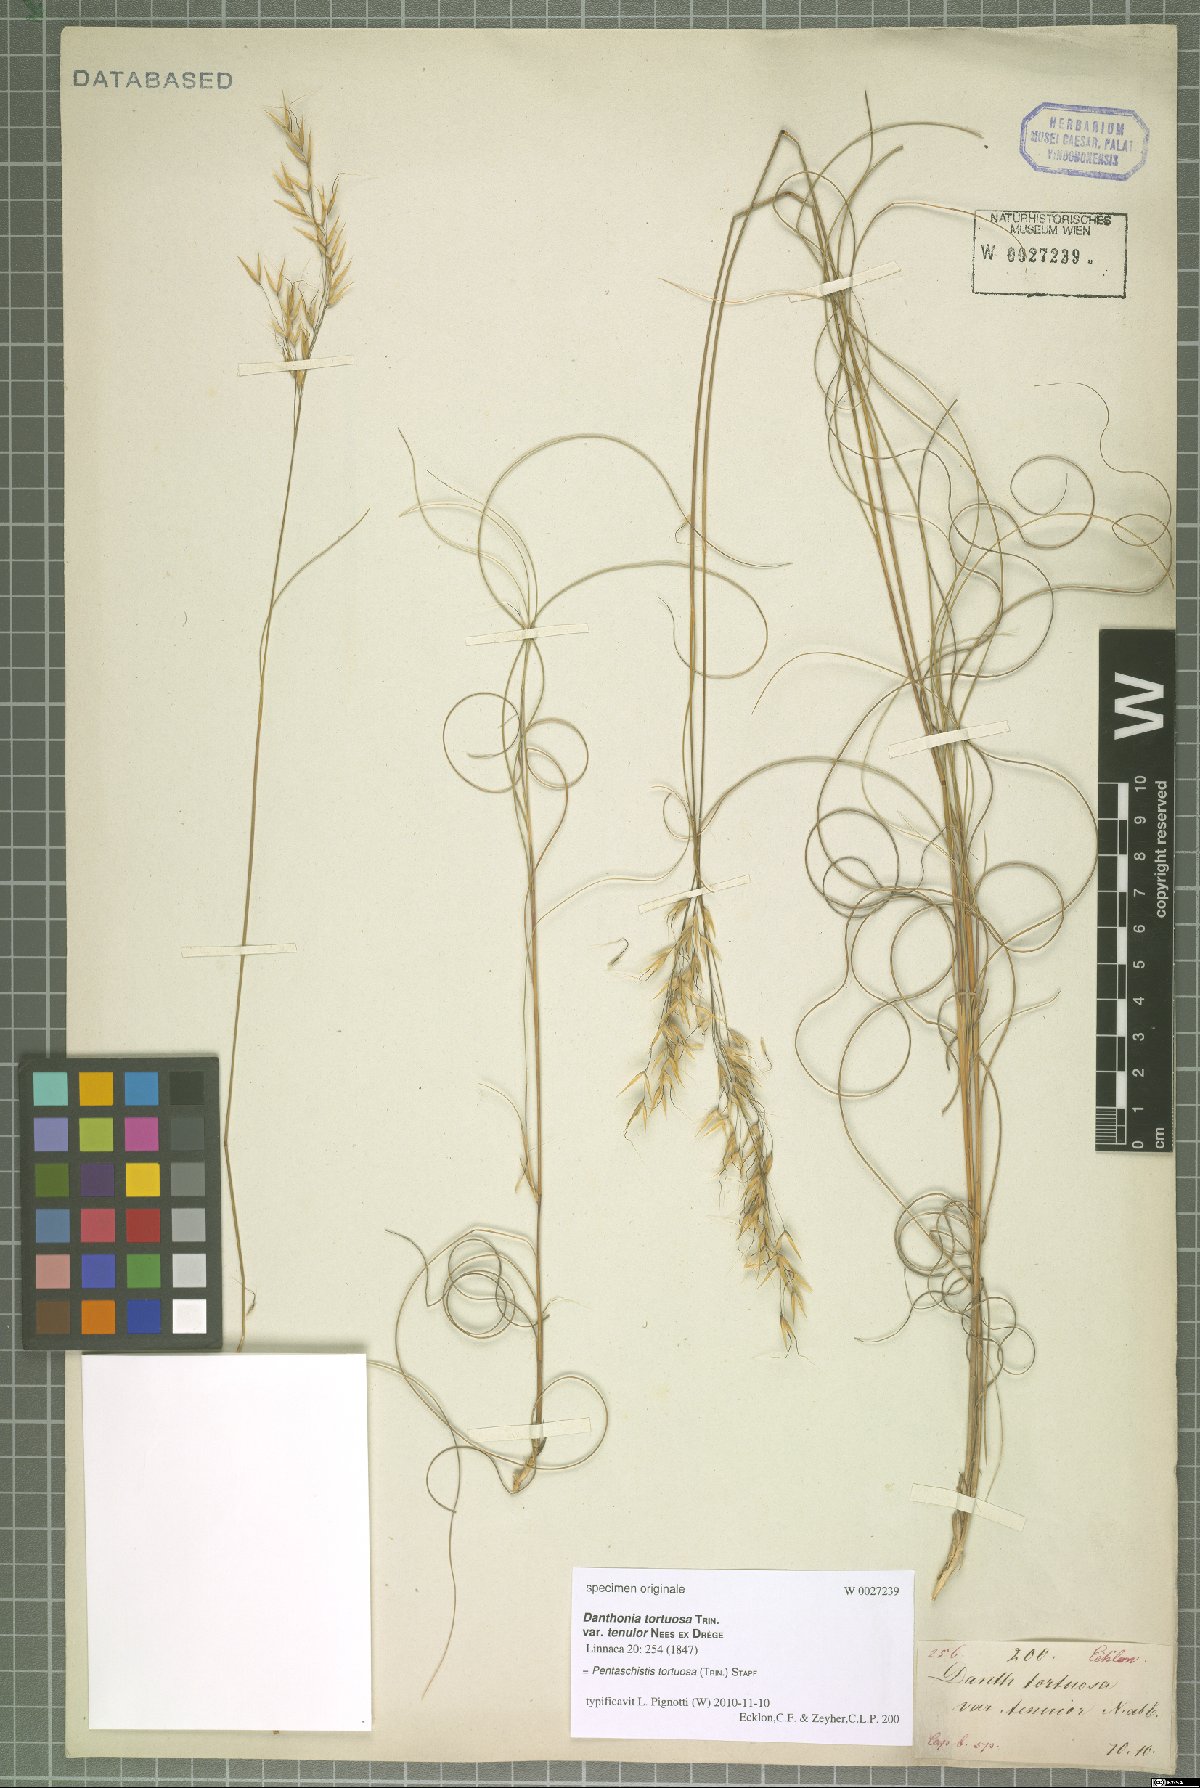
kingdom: Plantae
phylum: Tracheophyta
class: Liliopsida
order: Poales
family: Poaceae
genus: Pentameris
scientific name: Pentameris tortuosa
